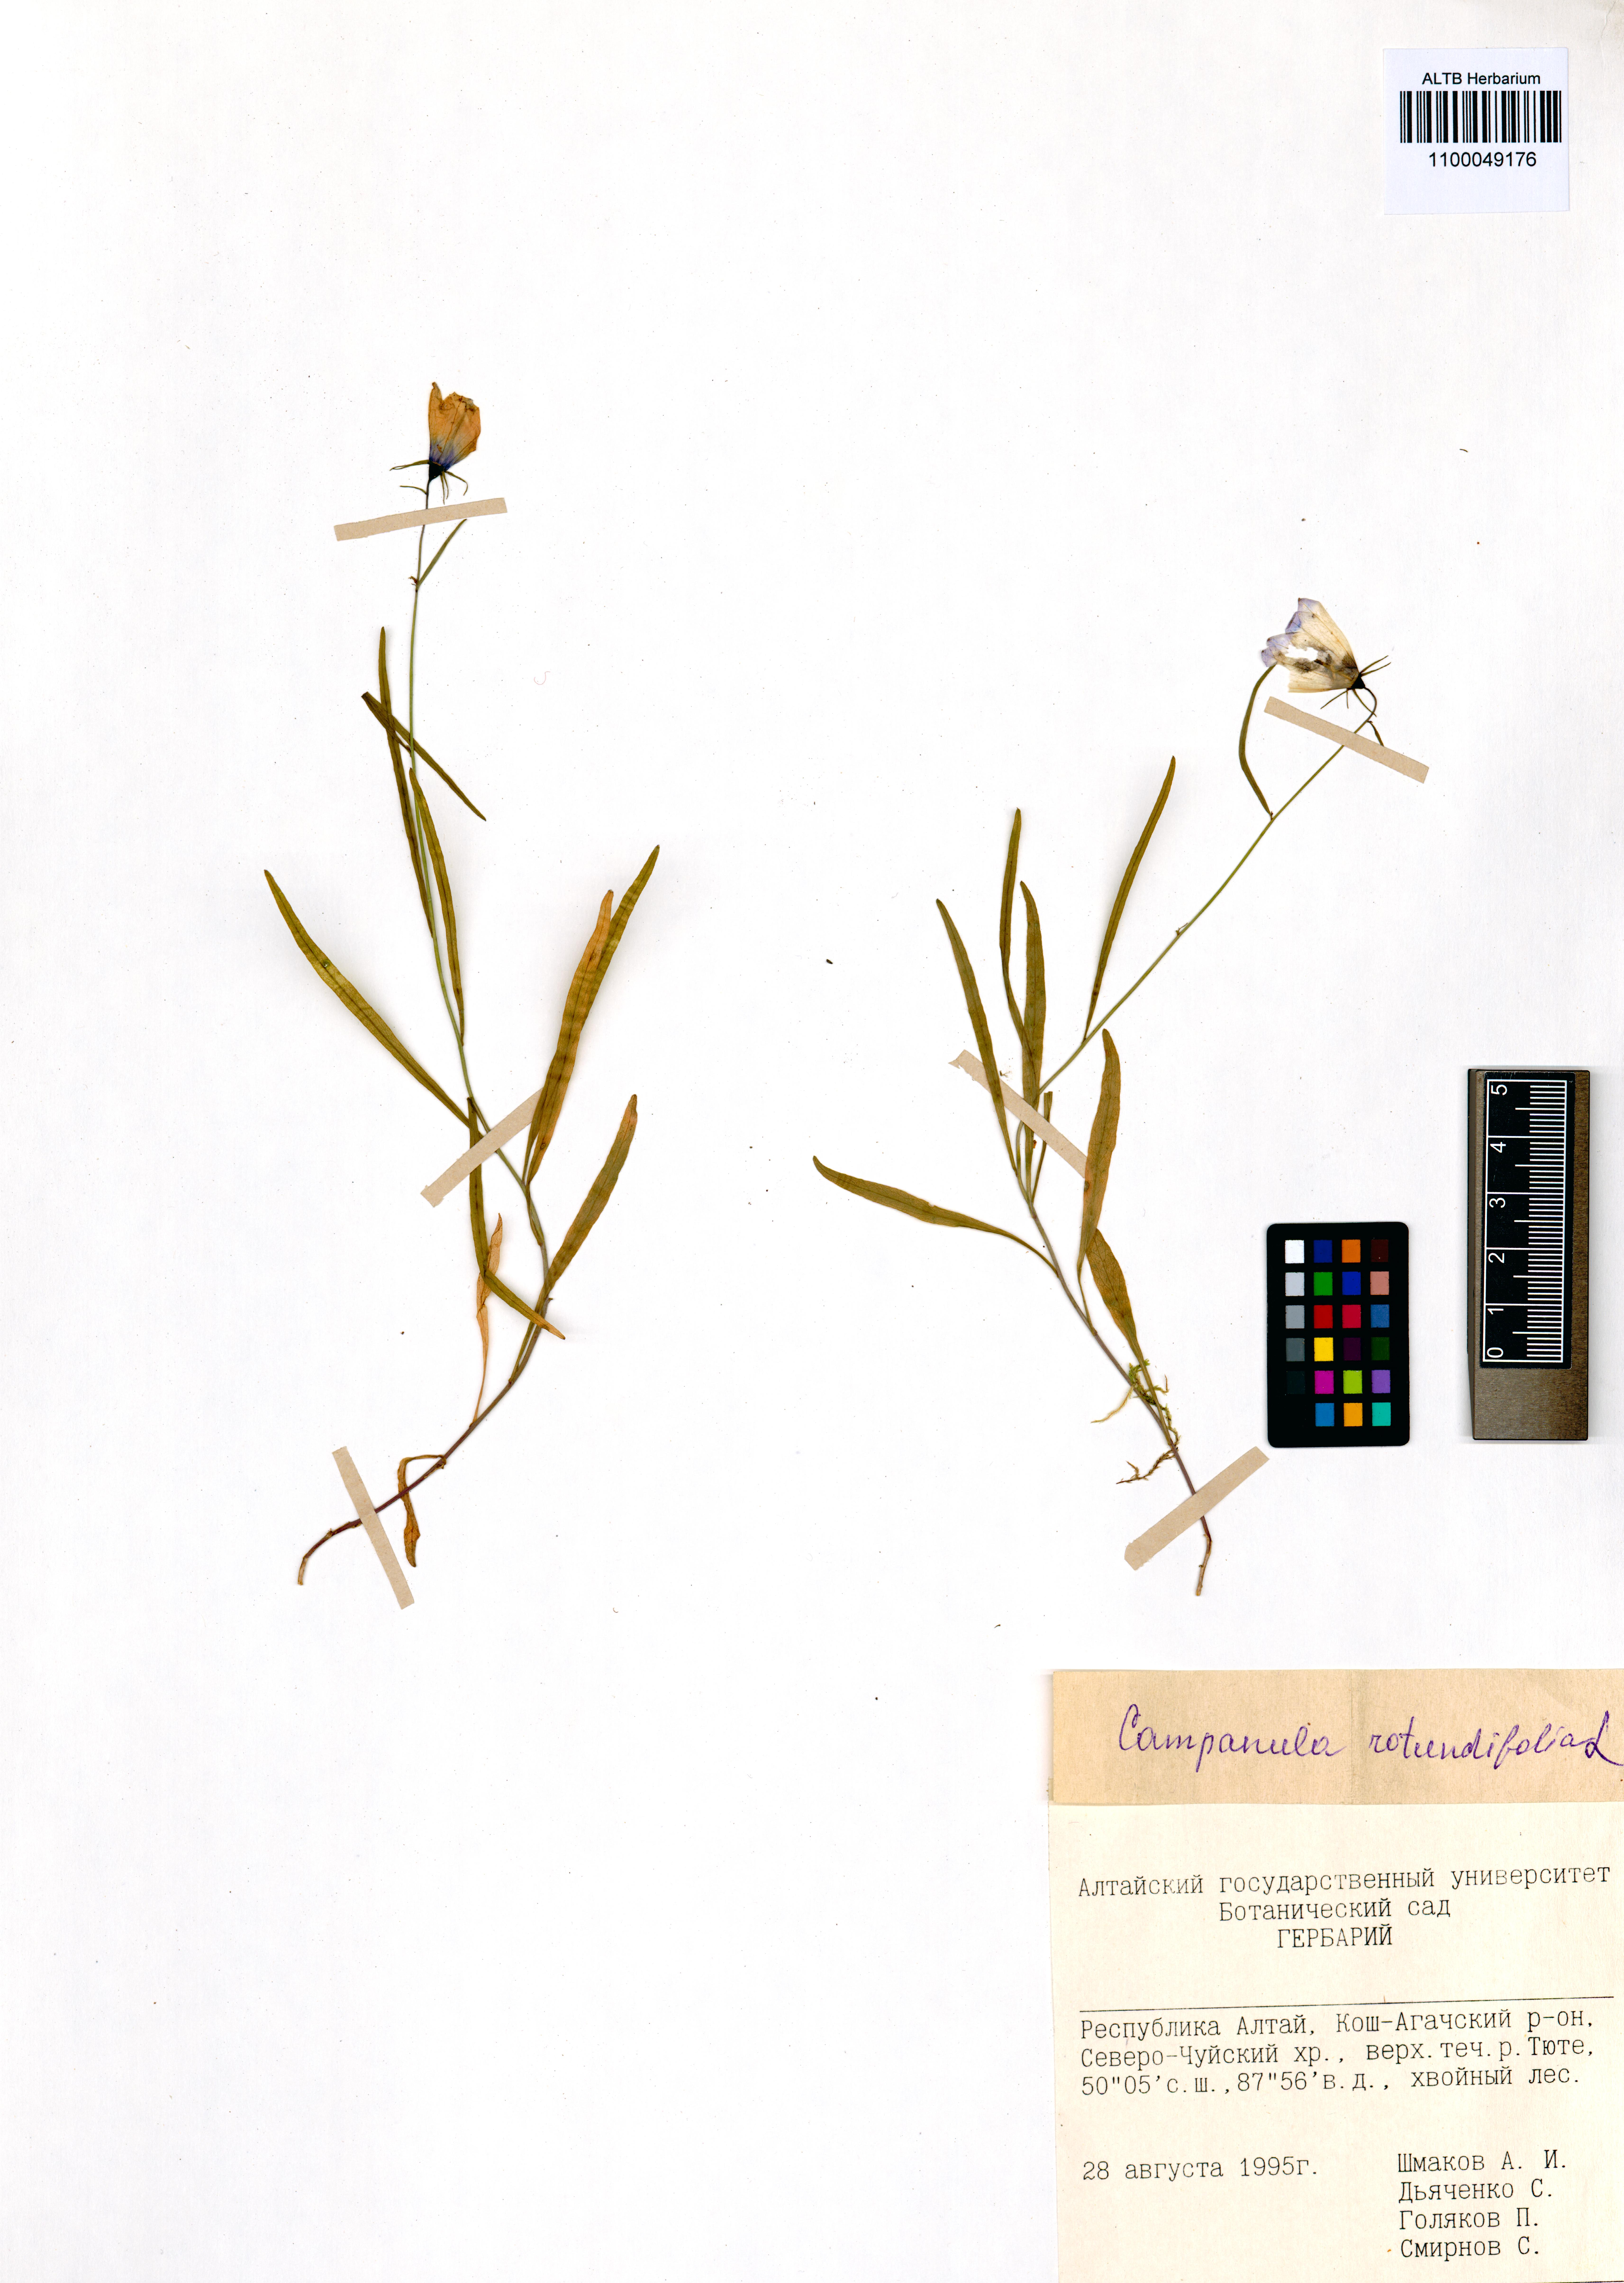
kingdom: Plantae
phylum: Tracheophyta
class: Magnoliopsida
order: Asterales
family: Campanulaceae
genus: Campanula
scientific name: Campanula rotundifolia
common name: Harebell
